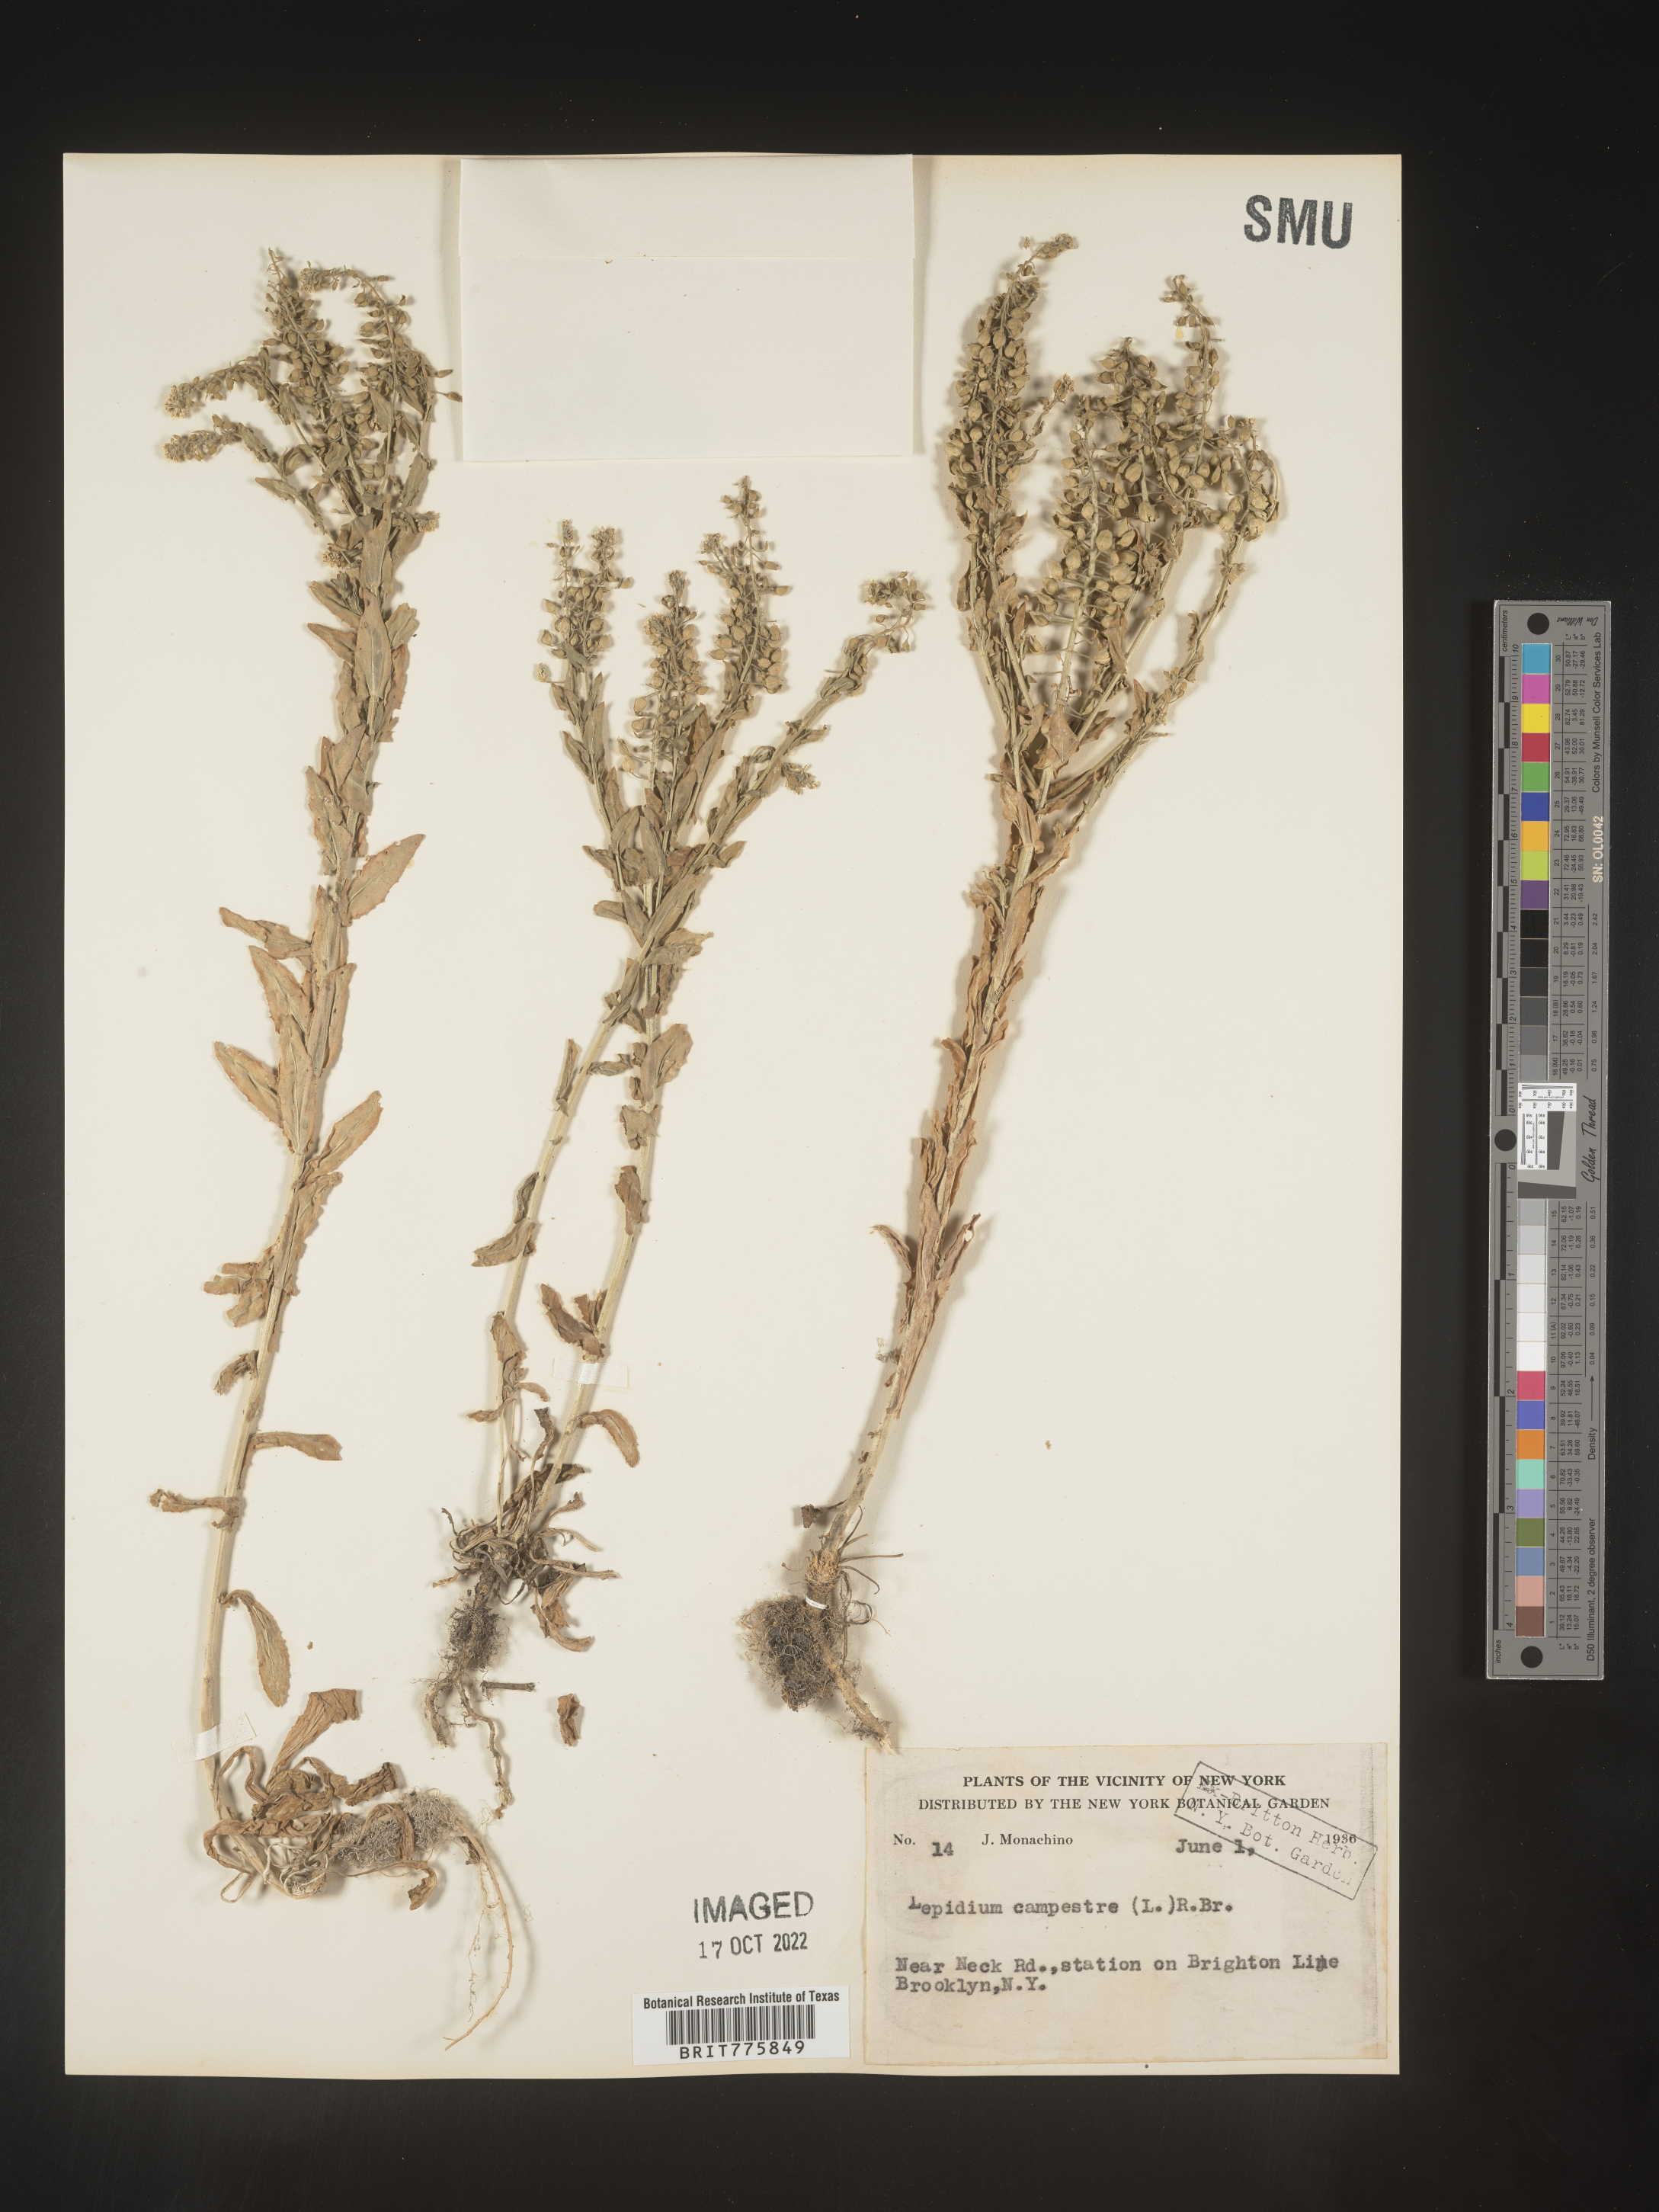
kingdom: Plantae
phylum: Tracheophyta
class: Magnoliopsida
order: Brassicales
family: Brassicaceae
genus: Lepidium
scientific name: Lepidium campestre
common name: Field pepperwort
